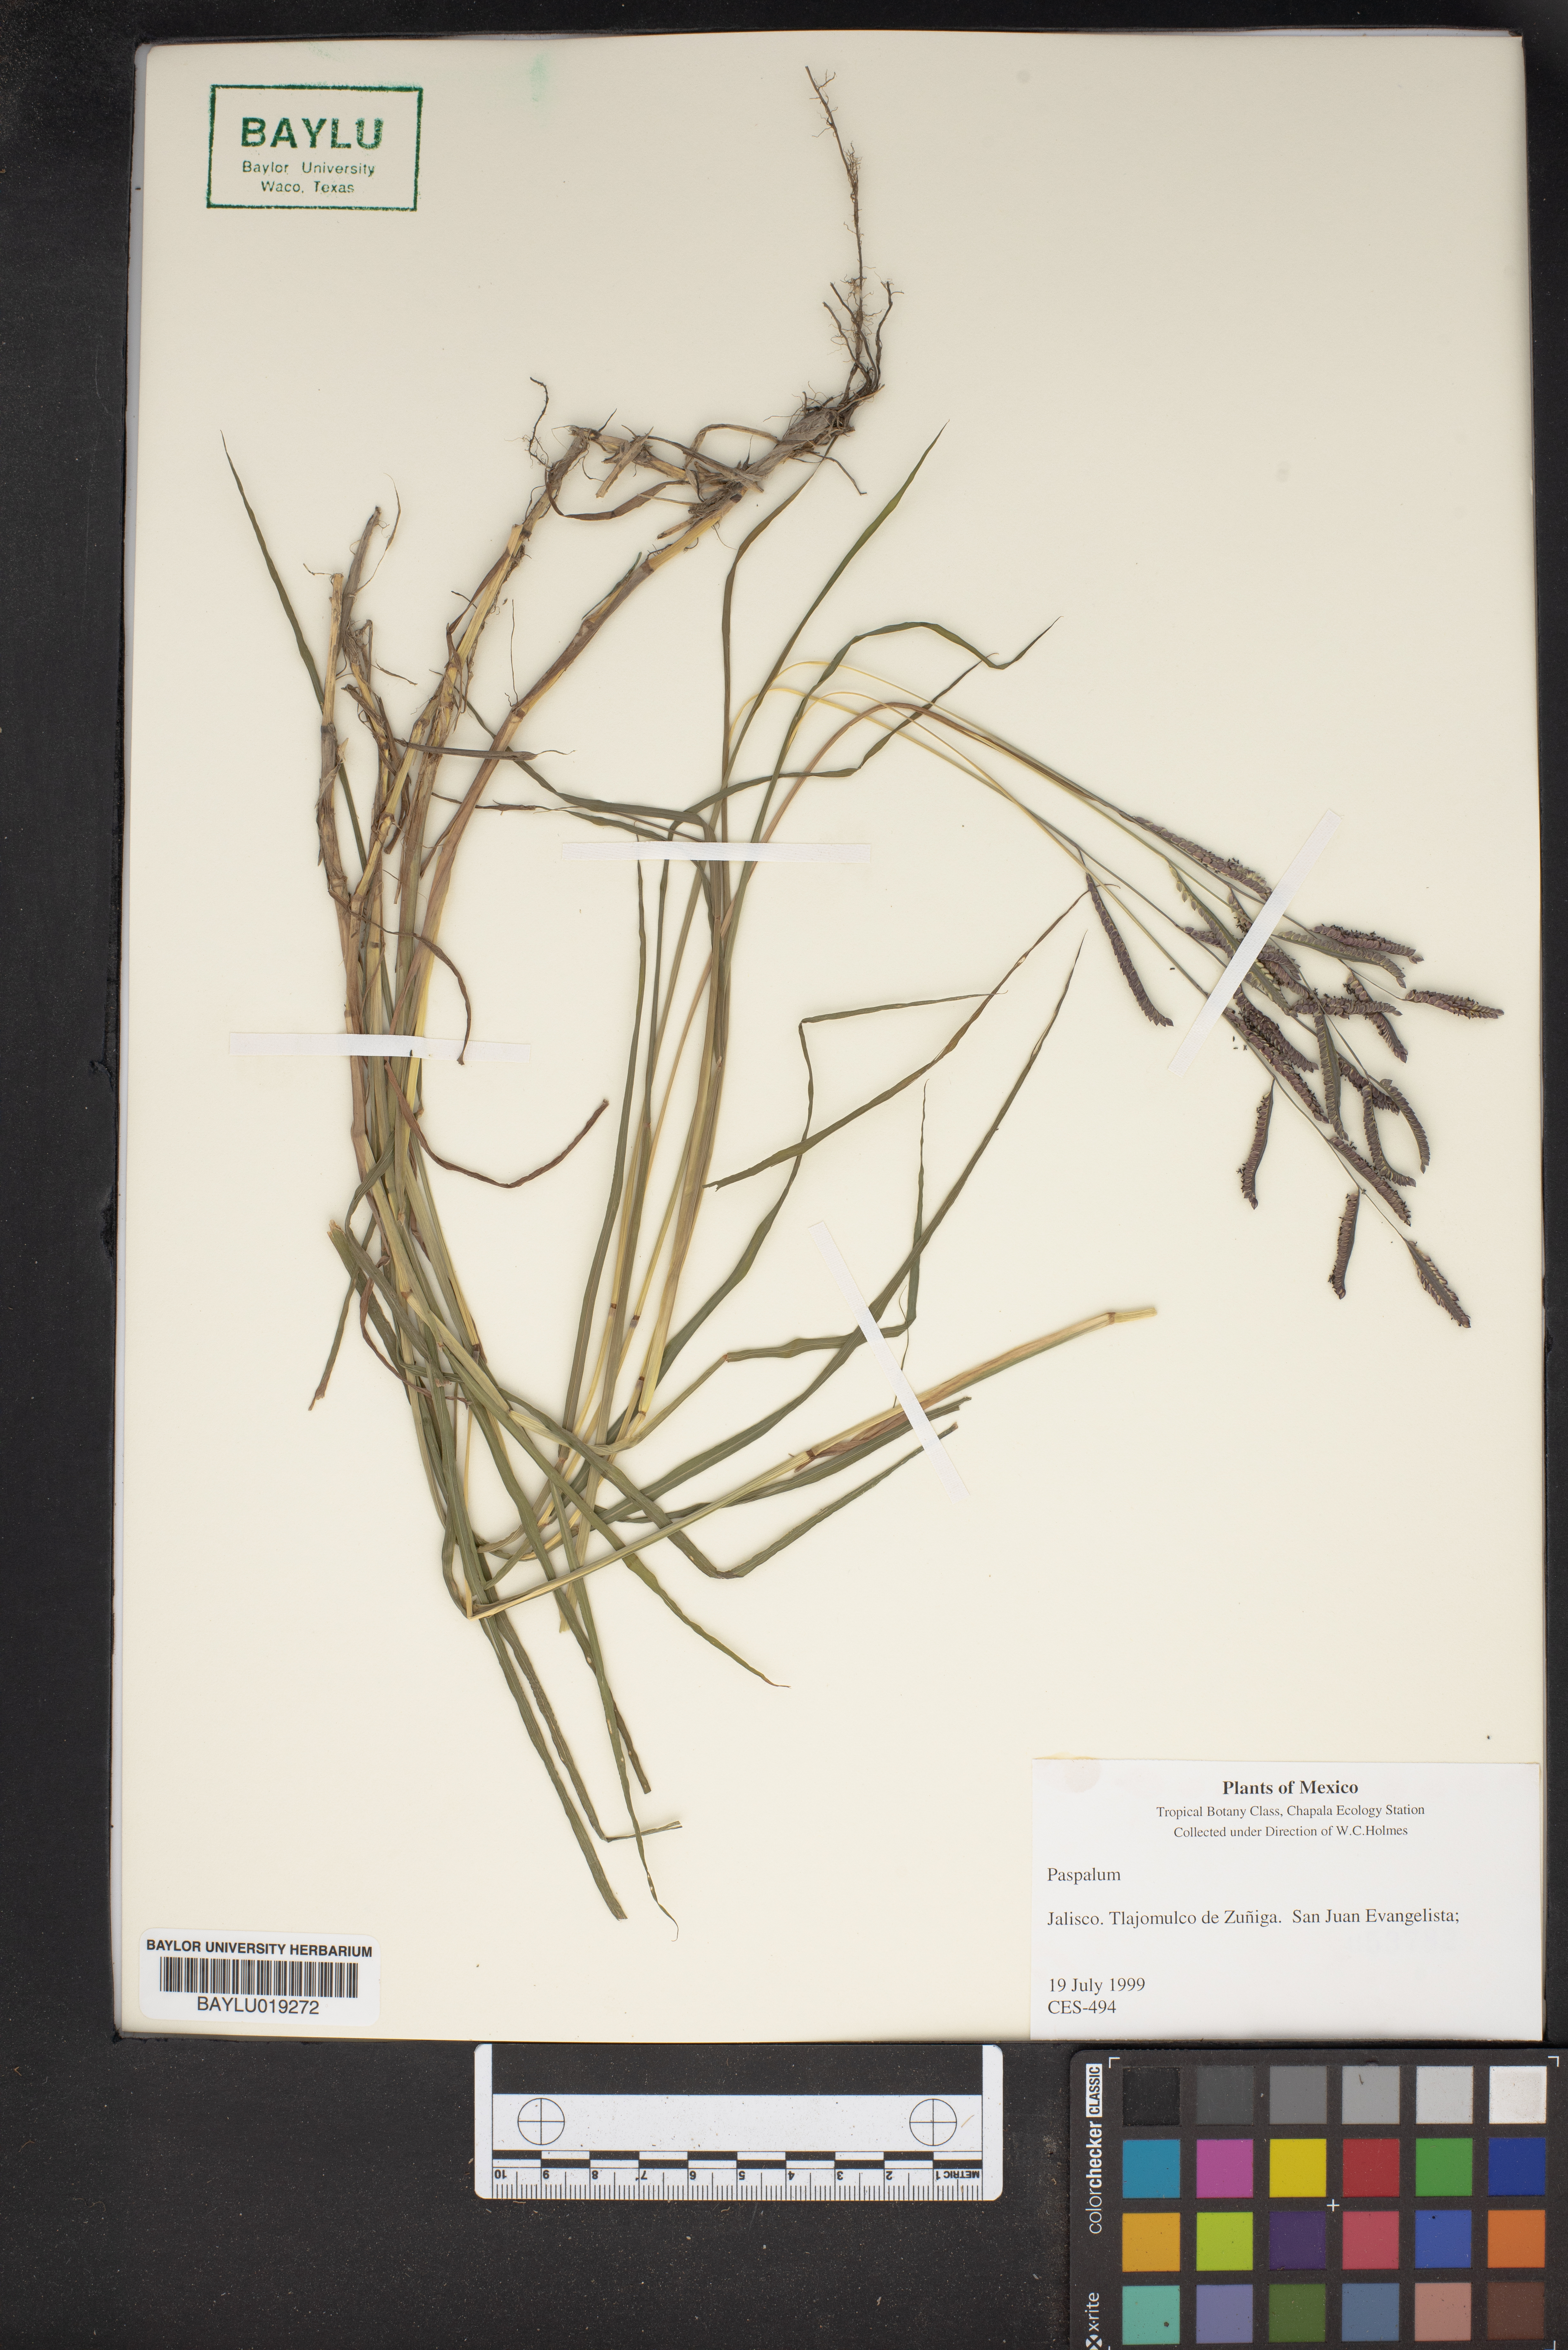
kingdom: Plantae
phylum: Tracheophyta
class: Liliopsida
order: Poales
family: Poaceae
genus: Paspalum
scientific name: Paspalum
